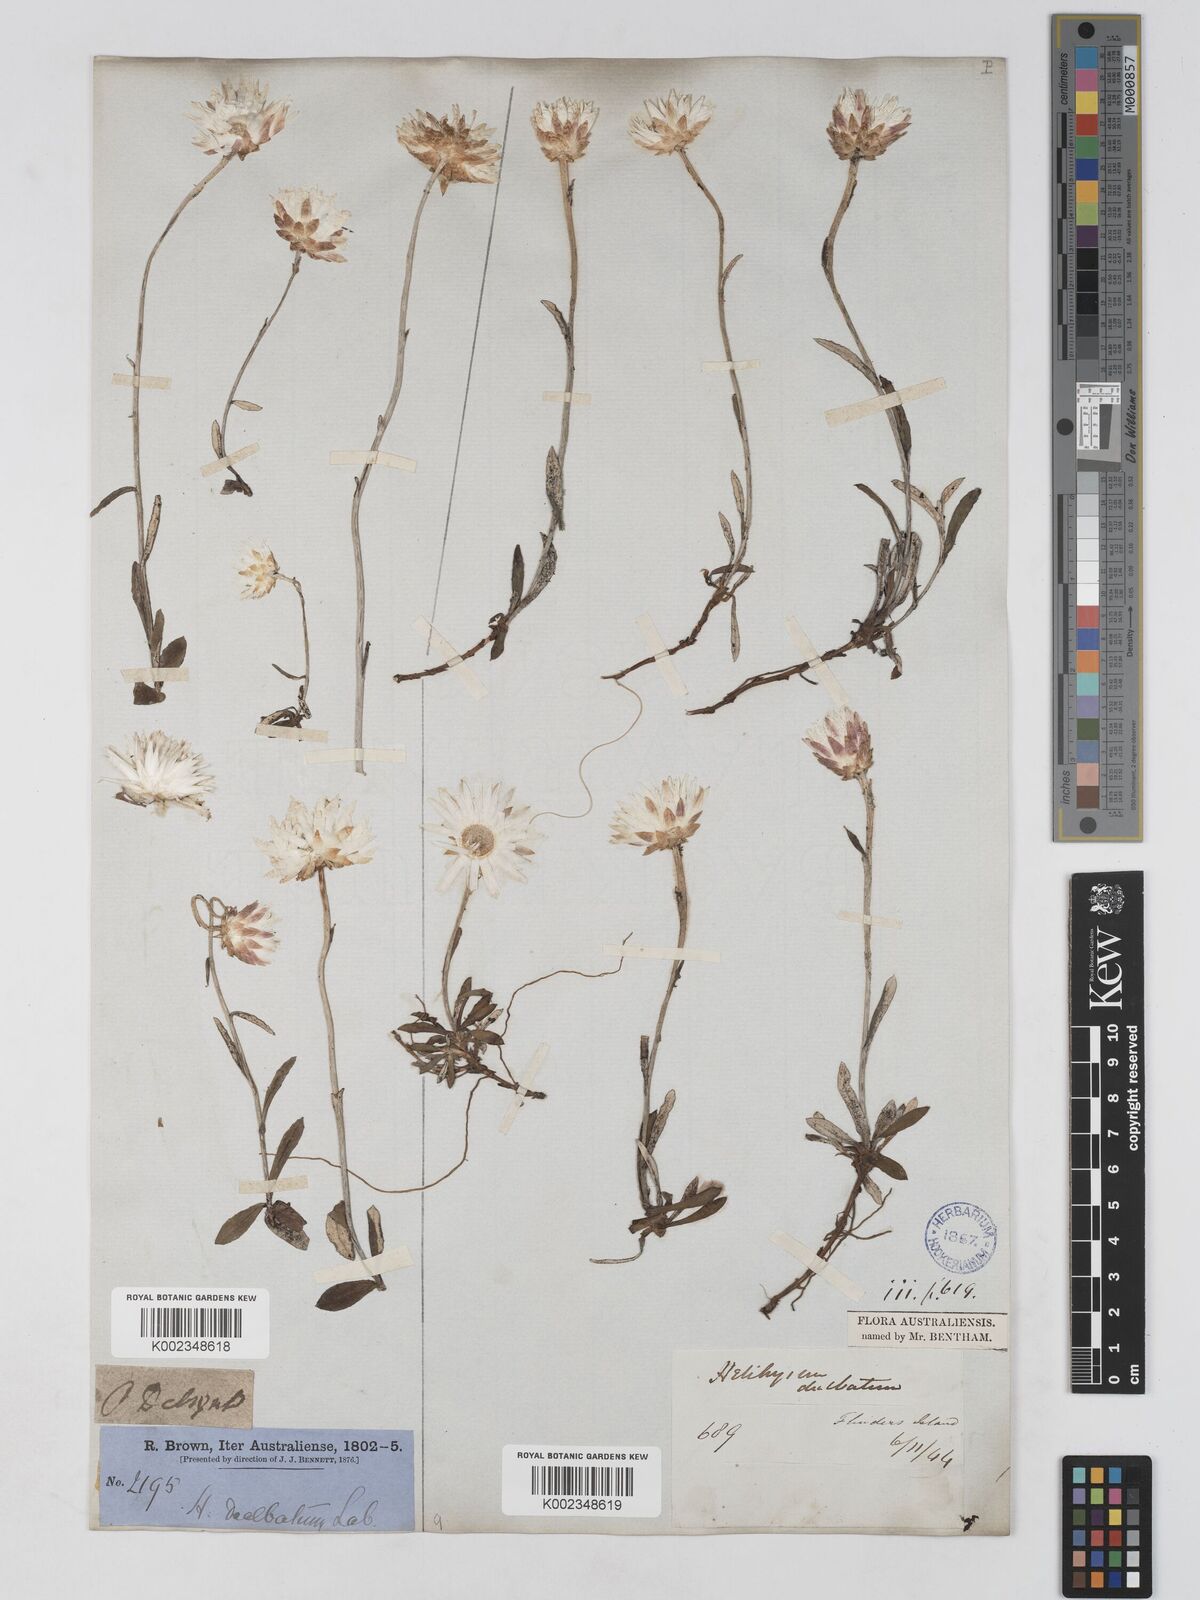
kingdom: Plantae
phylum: Tracheophyta
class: Magnoliopsida
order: Asterales
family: Asteraceae
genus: Argentipallium
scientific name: Argentipallium dealbatum
